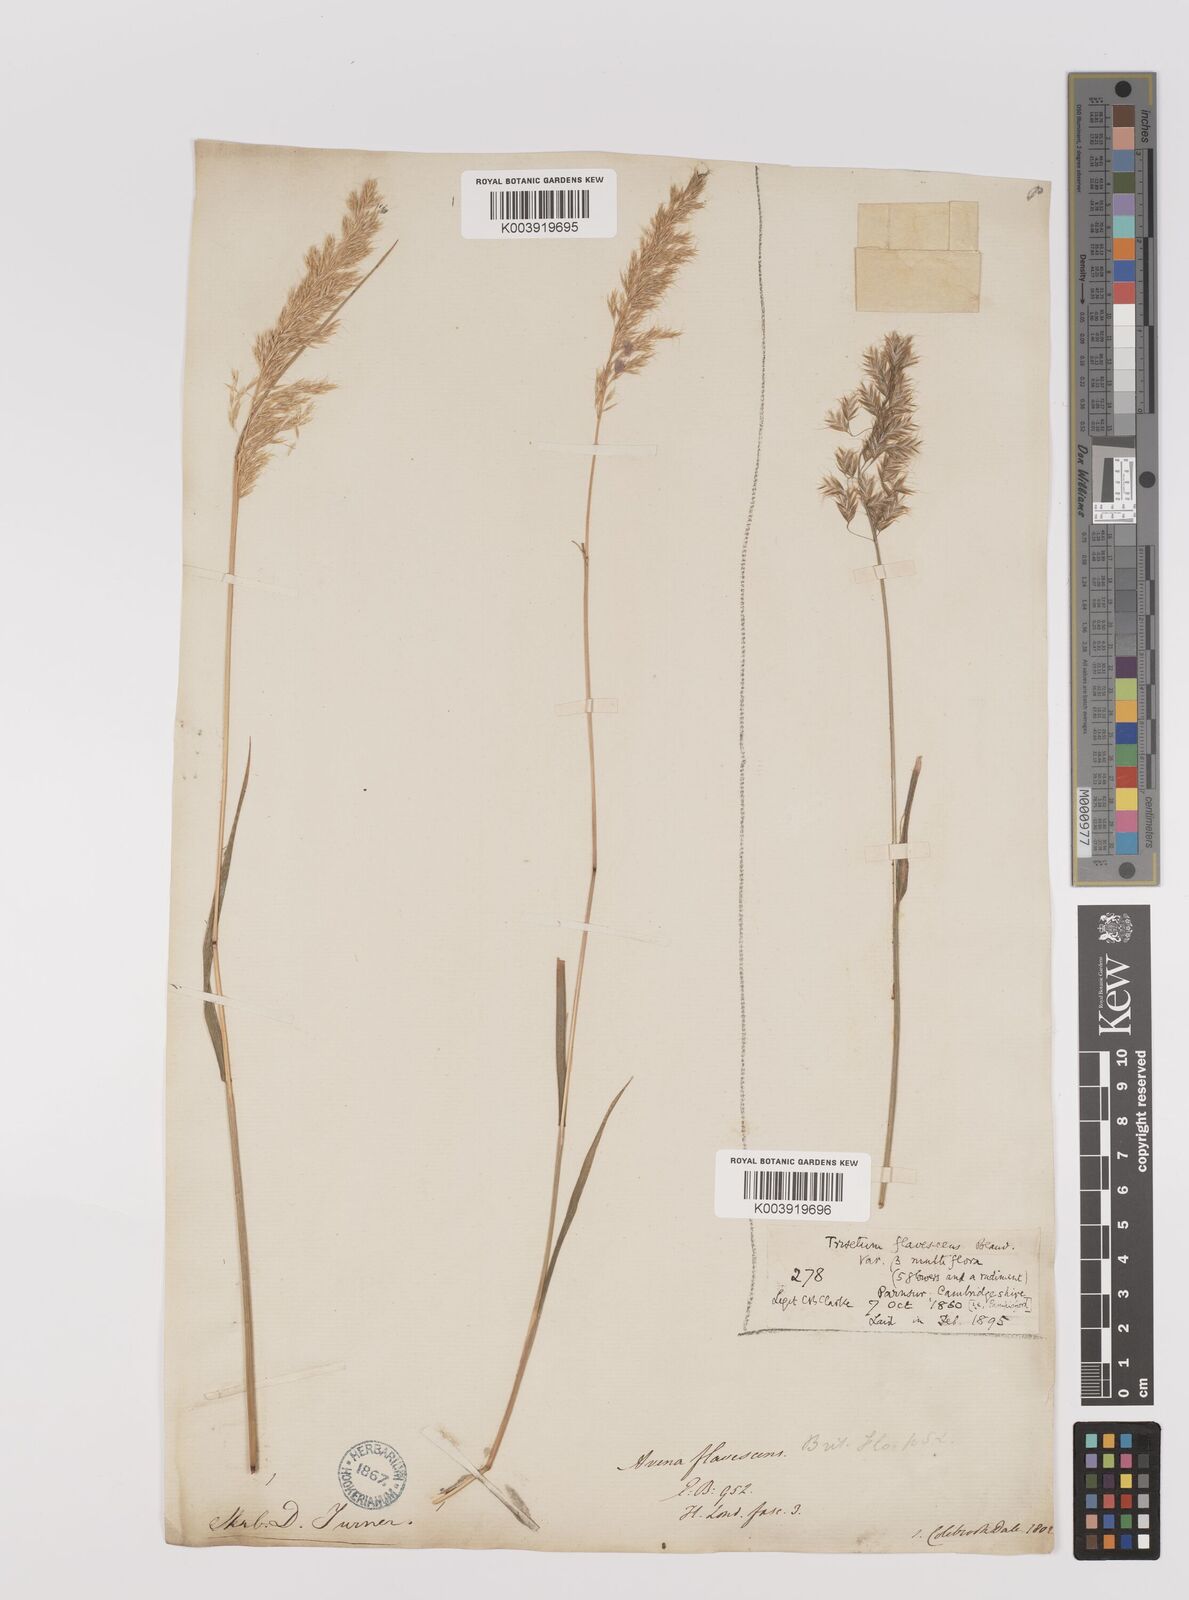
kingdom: Plantae
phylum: Tracheophyta
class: Liliopsida
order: Poales
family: Poaceae
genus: Trisetum
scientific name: Trisetum flavescens
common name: Yellow oat-grass
